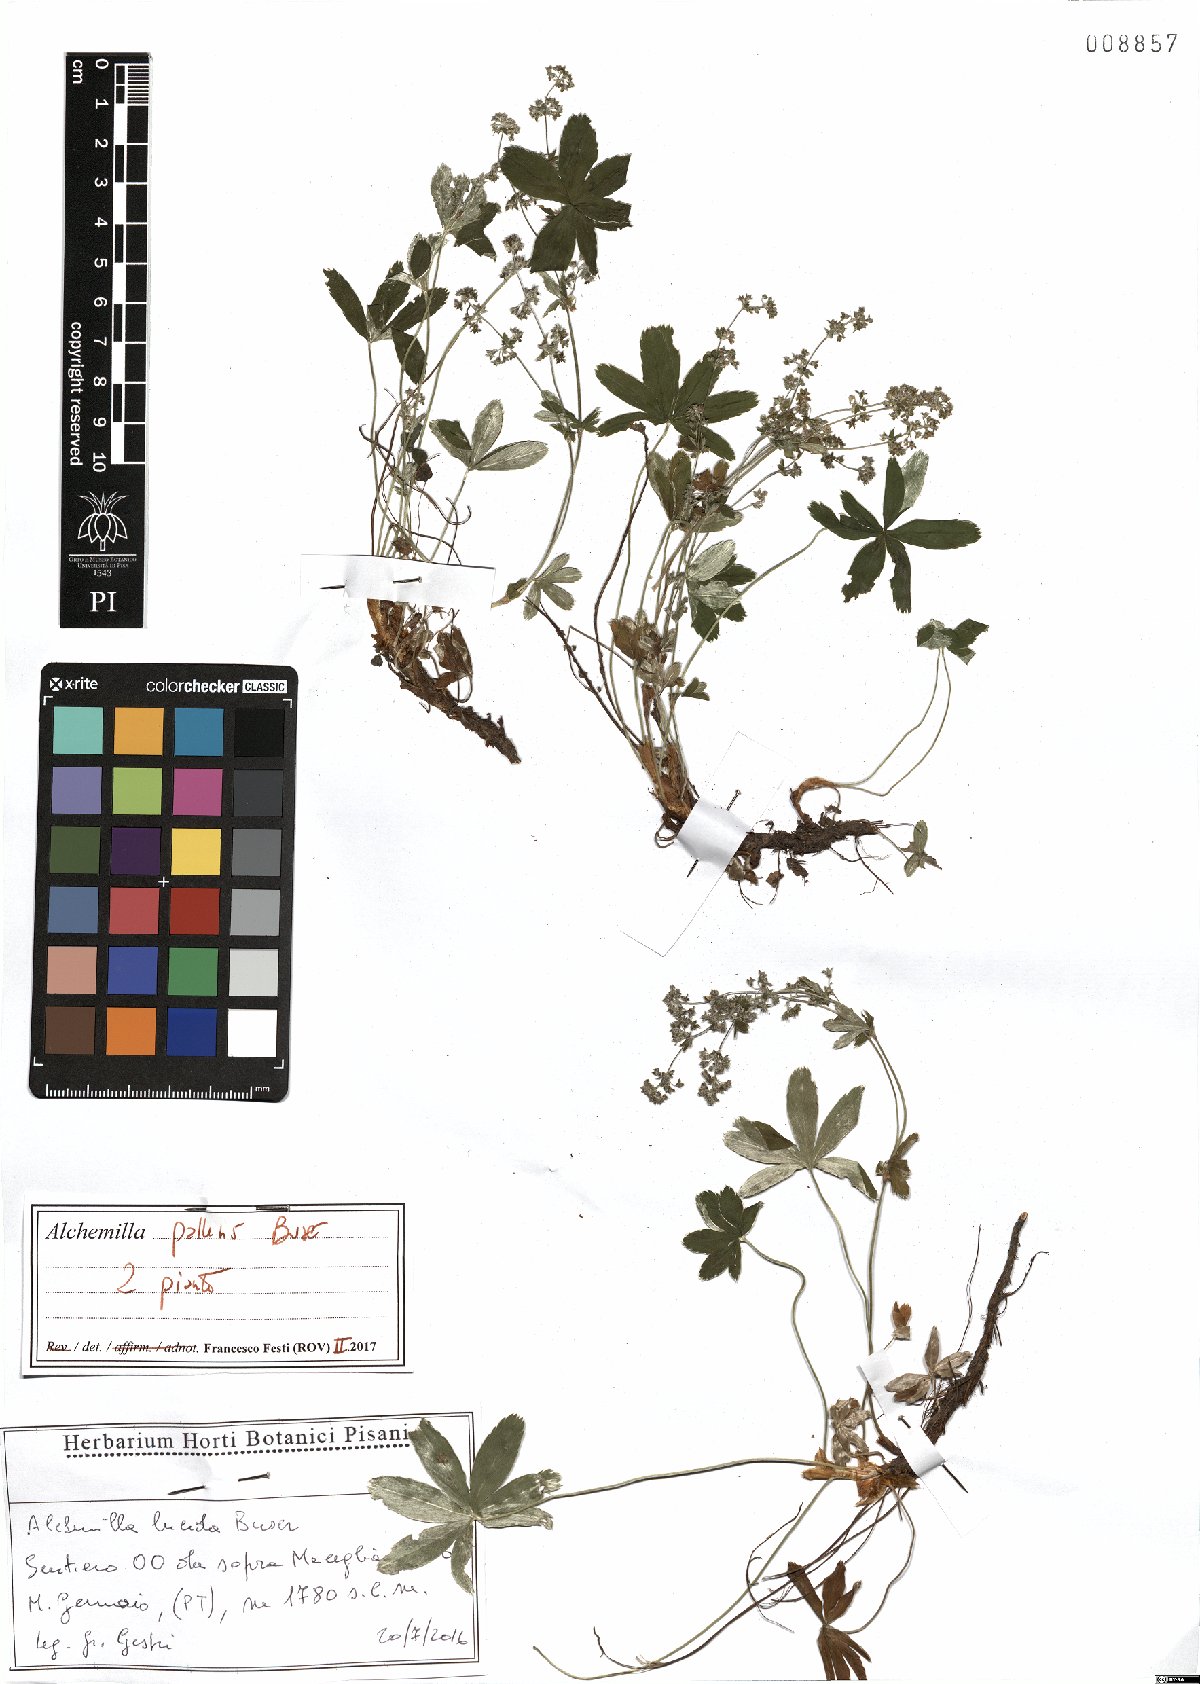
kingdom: Plantae
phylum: Tracheophyta
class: Magnoliopsida
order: Rosales
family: Rosaceae
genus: Alchemilla
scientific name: Alchemilla pallens
